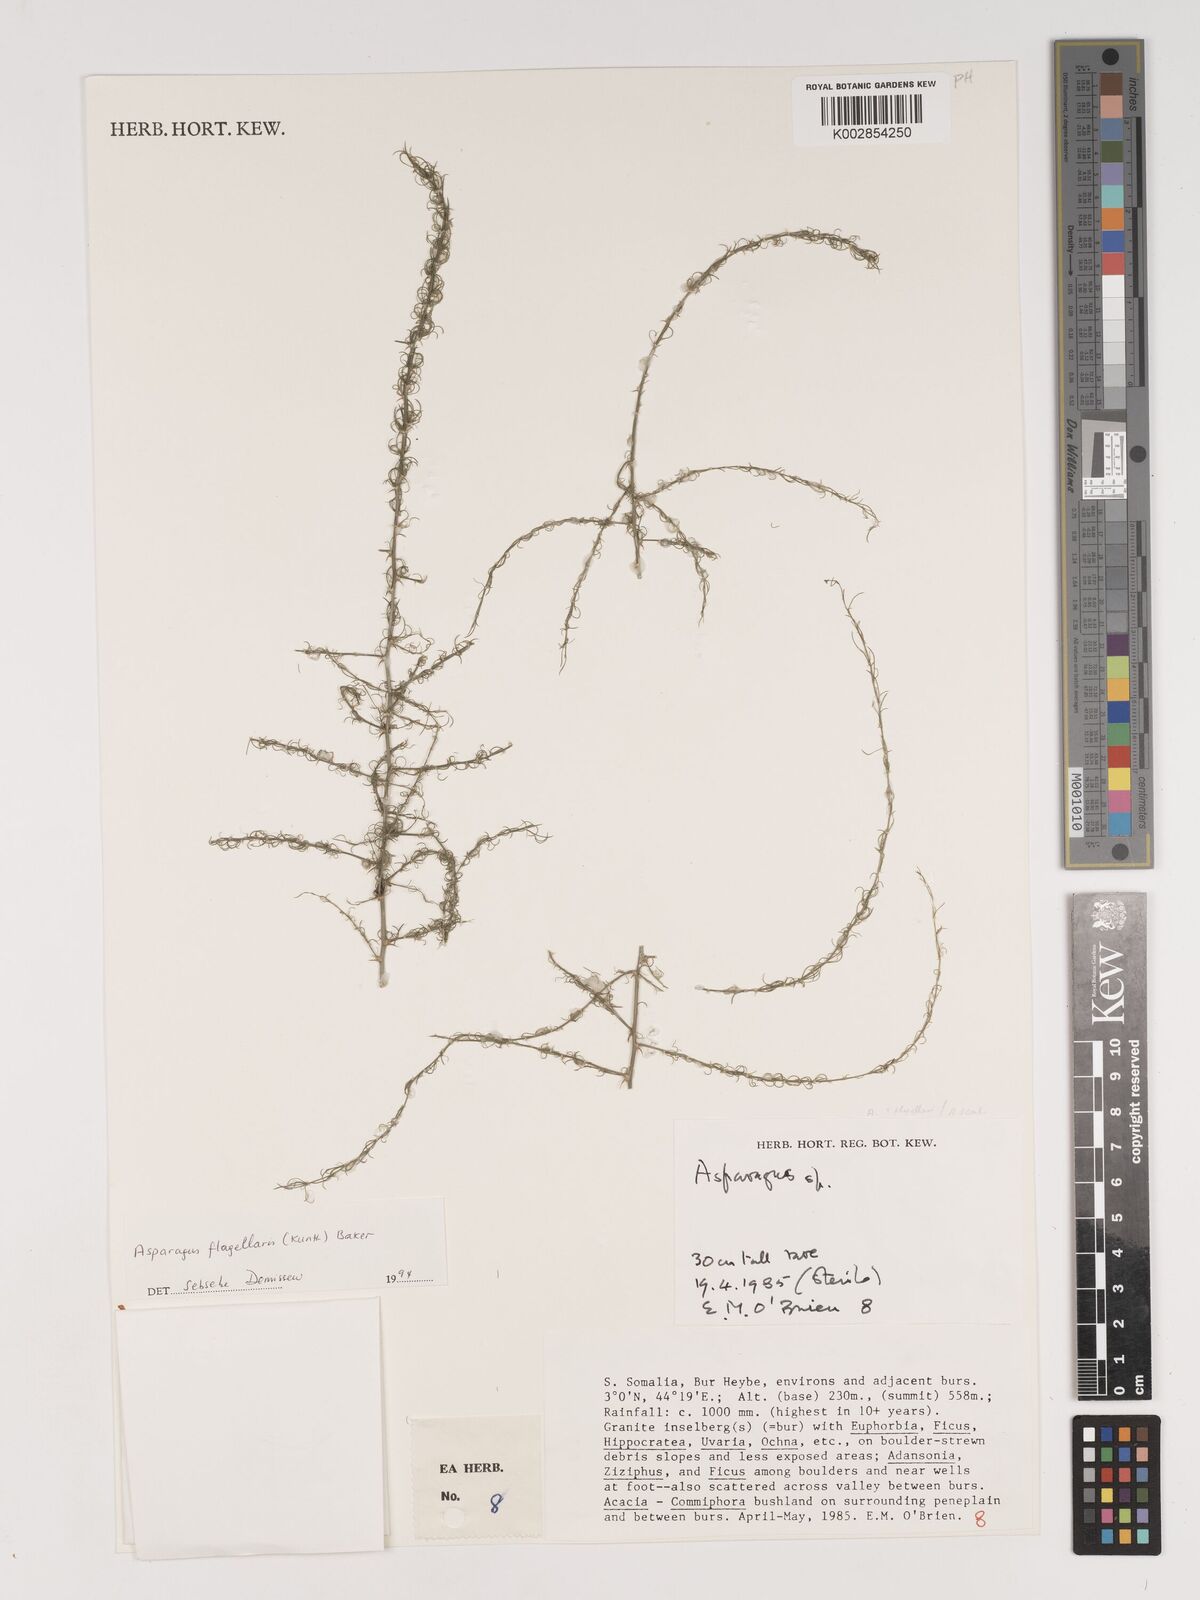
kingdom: Plantae
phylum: Tracheophyta
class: Liliopsida
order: Asparagales
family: Asparagaceae
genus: Asparagus
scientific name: Asparagus flagellaris
